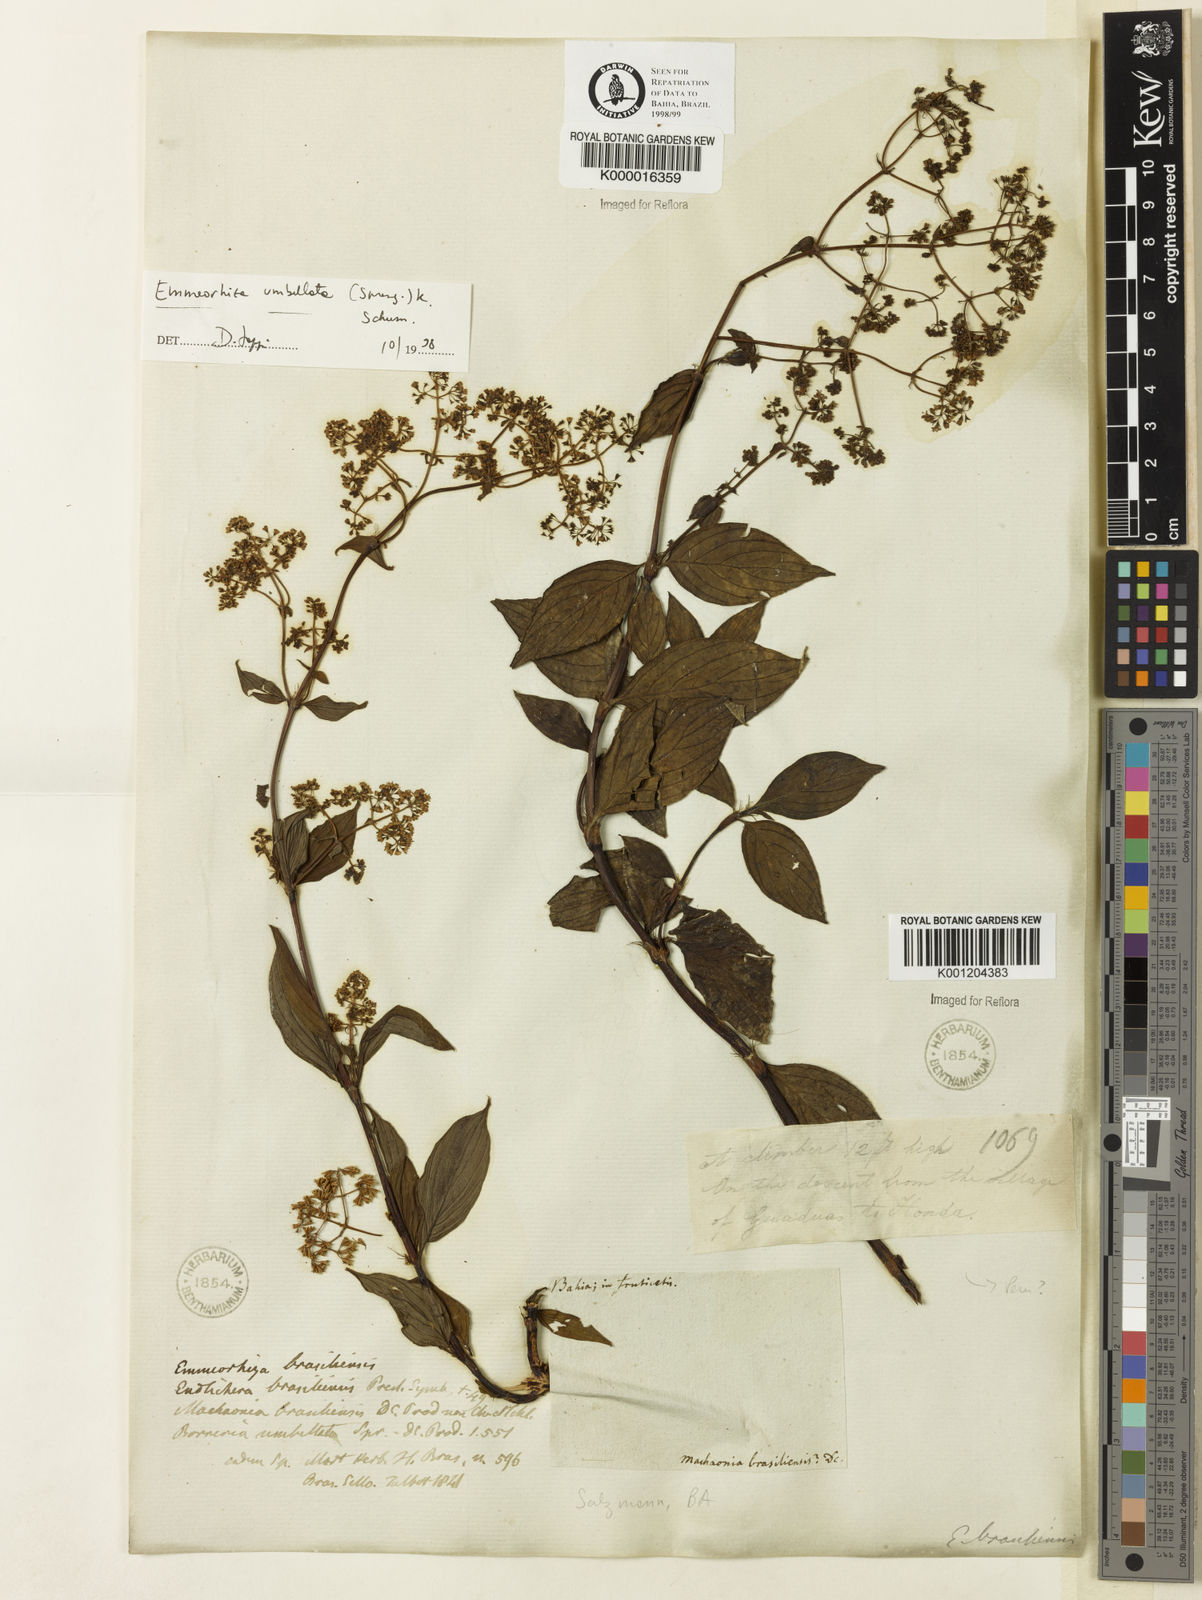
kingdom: Plantae
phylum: Tracheophyta
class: Magnoliopsida
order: Gentianales
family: Rubiaceae
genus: Emmeorhiza
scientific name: Emmeorhiza umbellata
